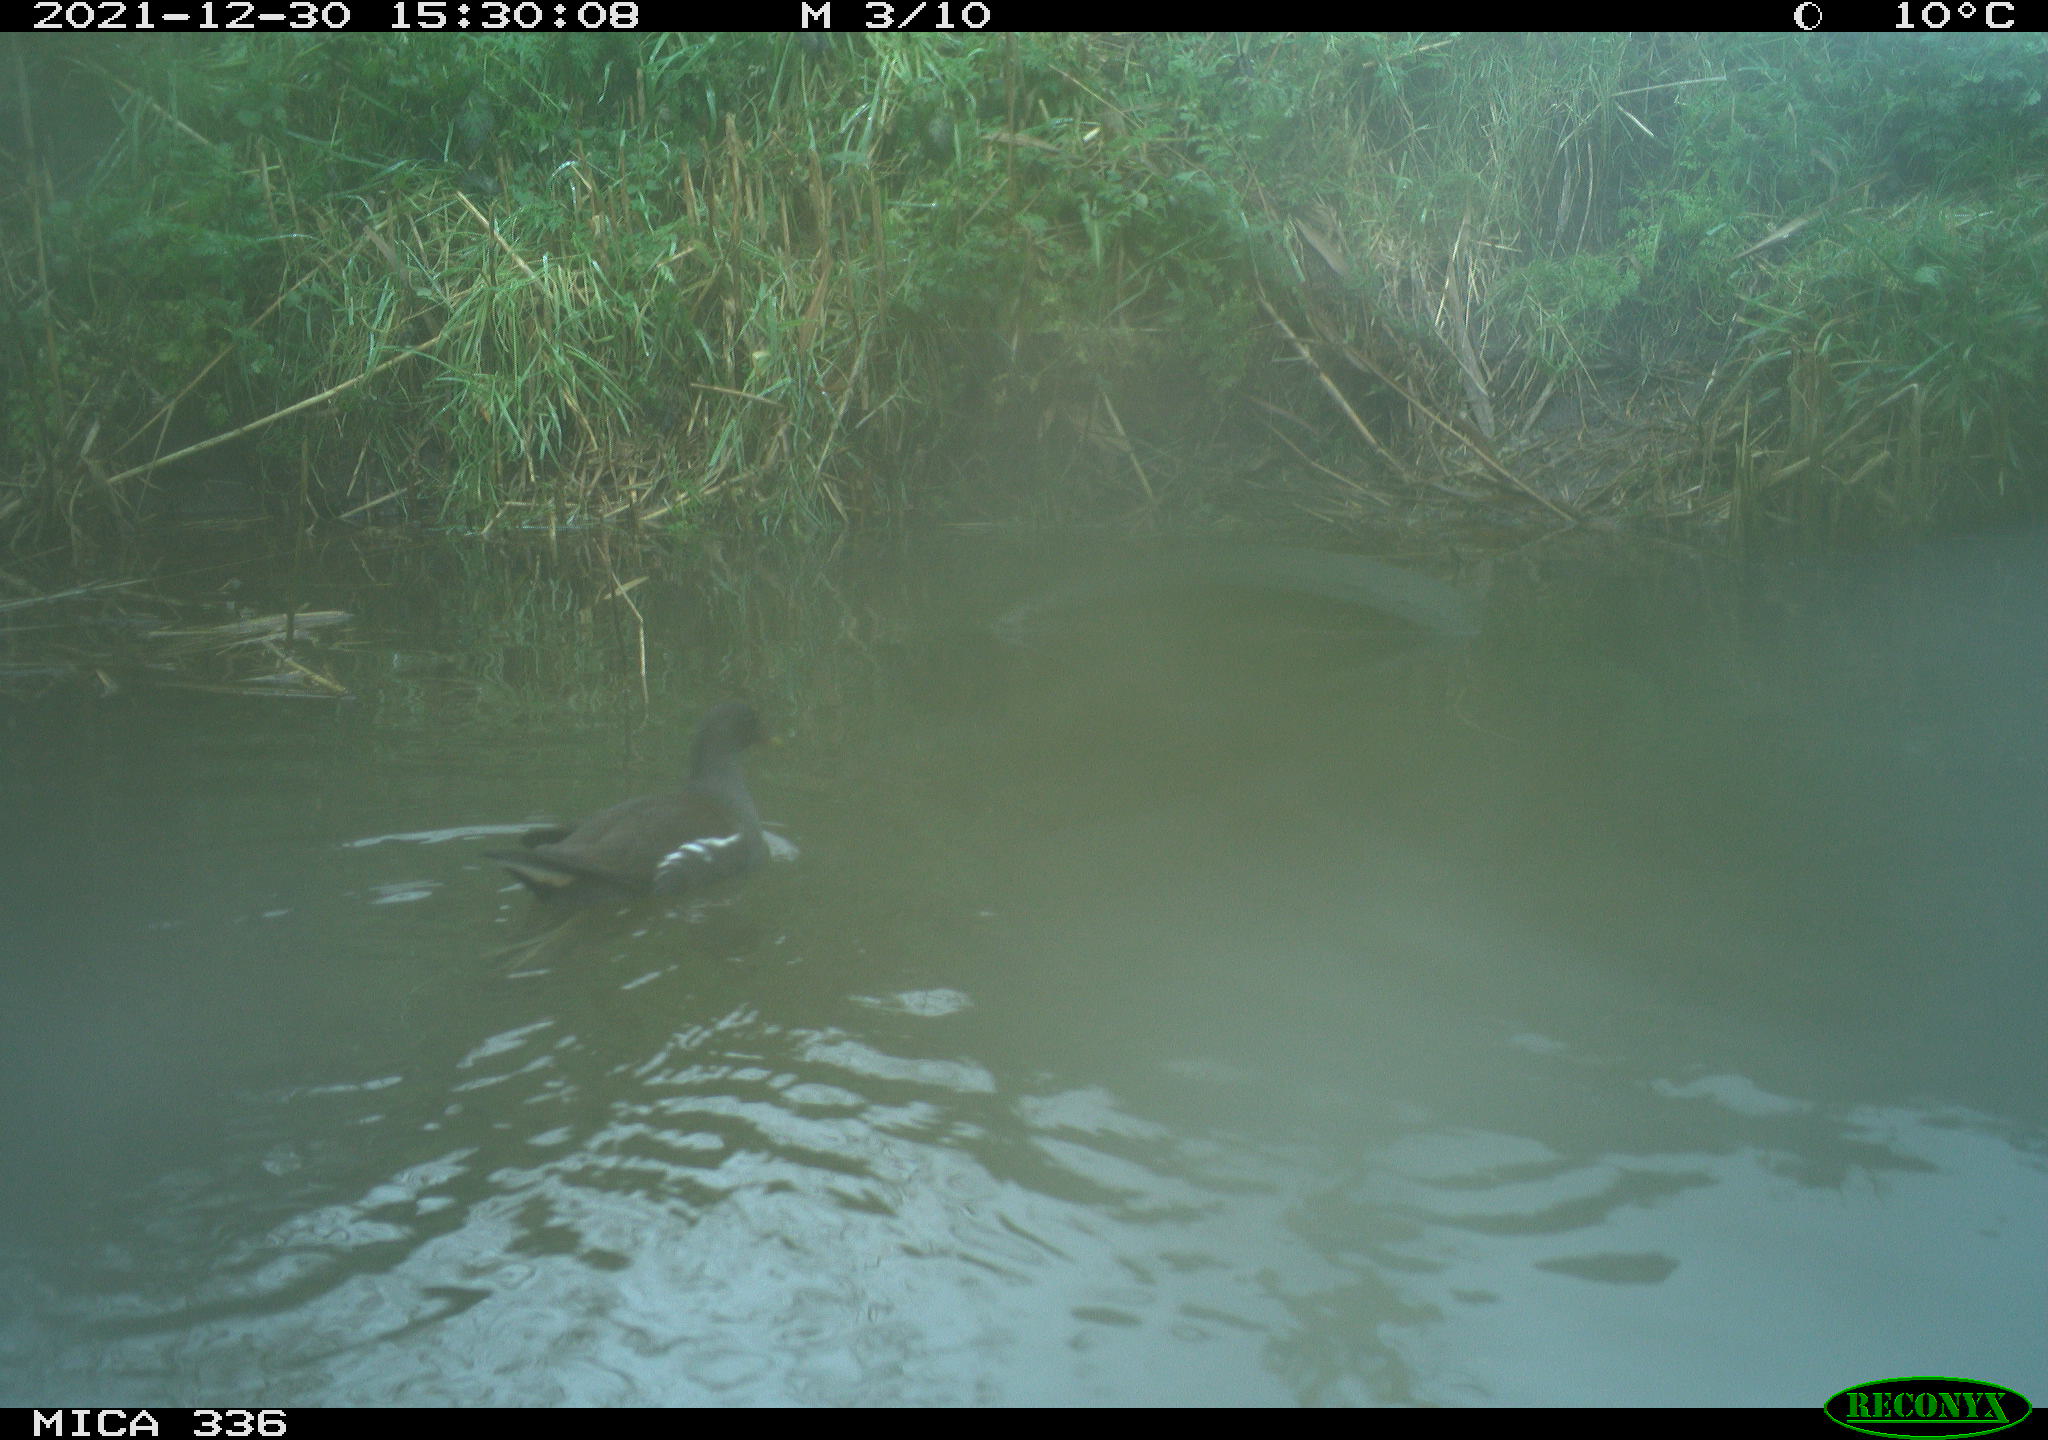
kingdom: Animalia
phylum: Chordata
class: Aves
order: Gruiformes
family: Rallidae
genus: Gallinula
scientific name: Gallinula chloropus
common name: Common moorhen
